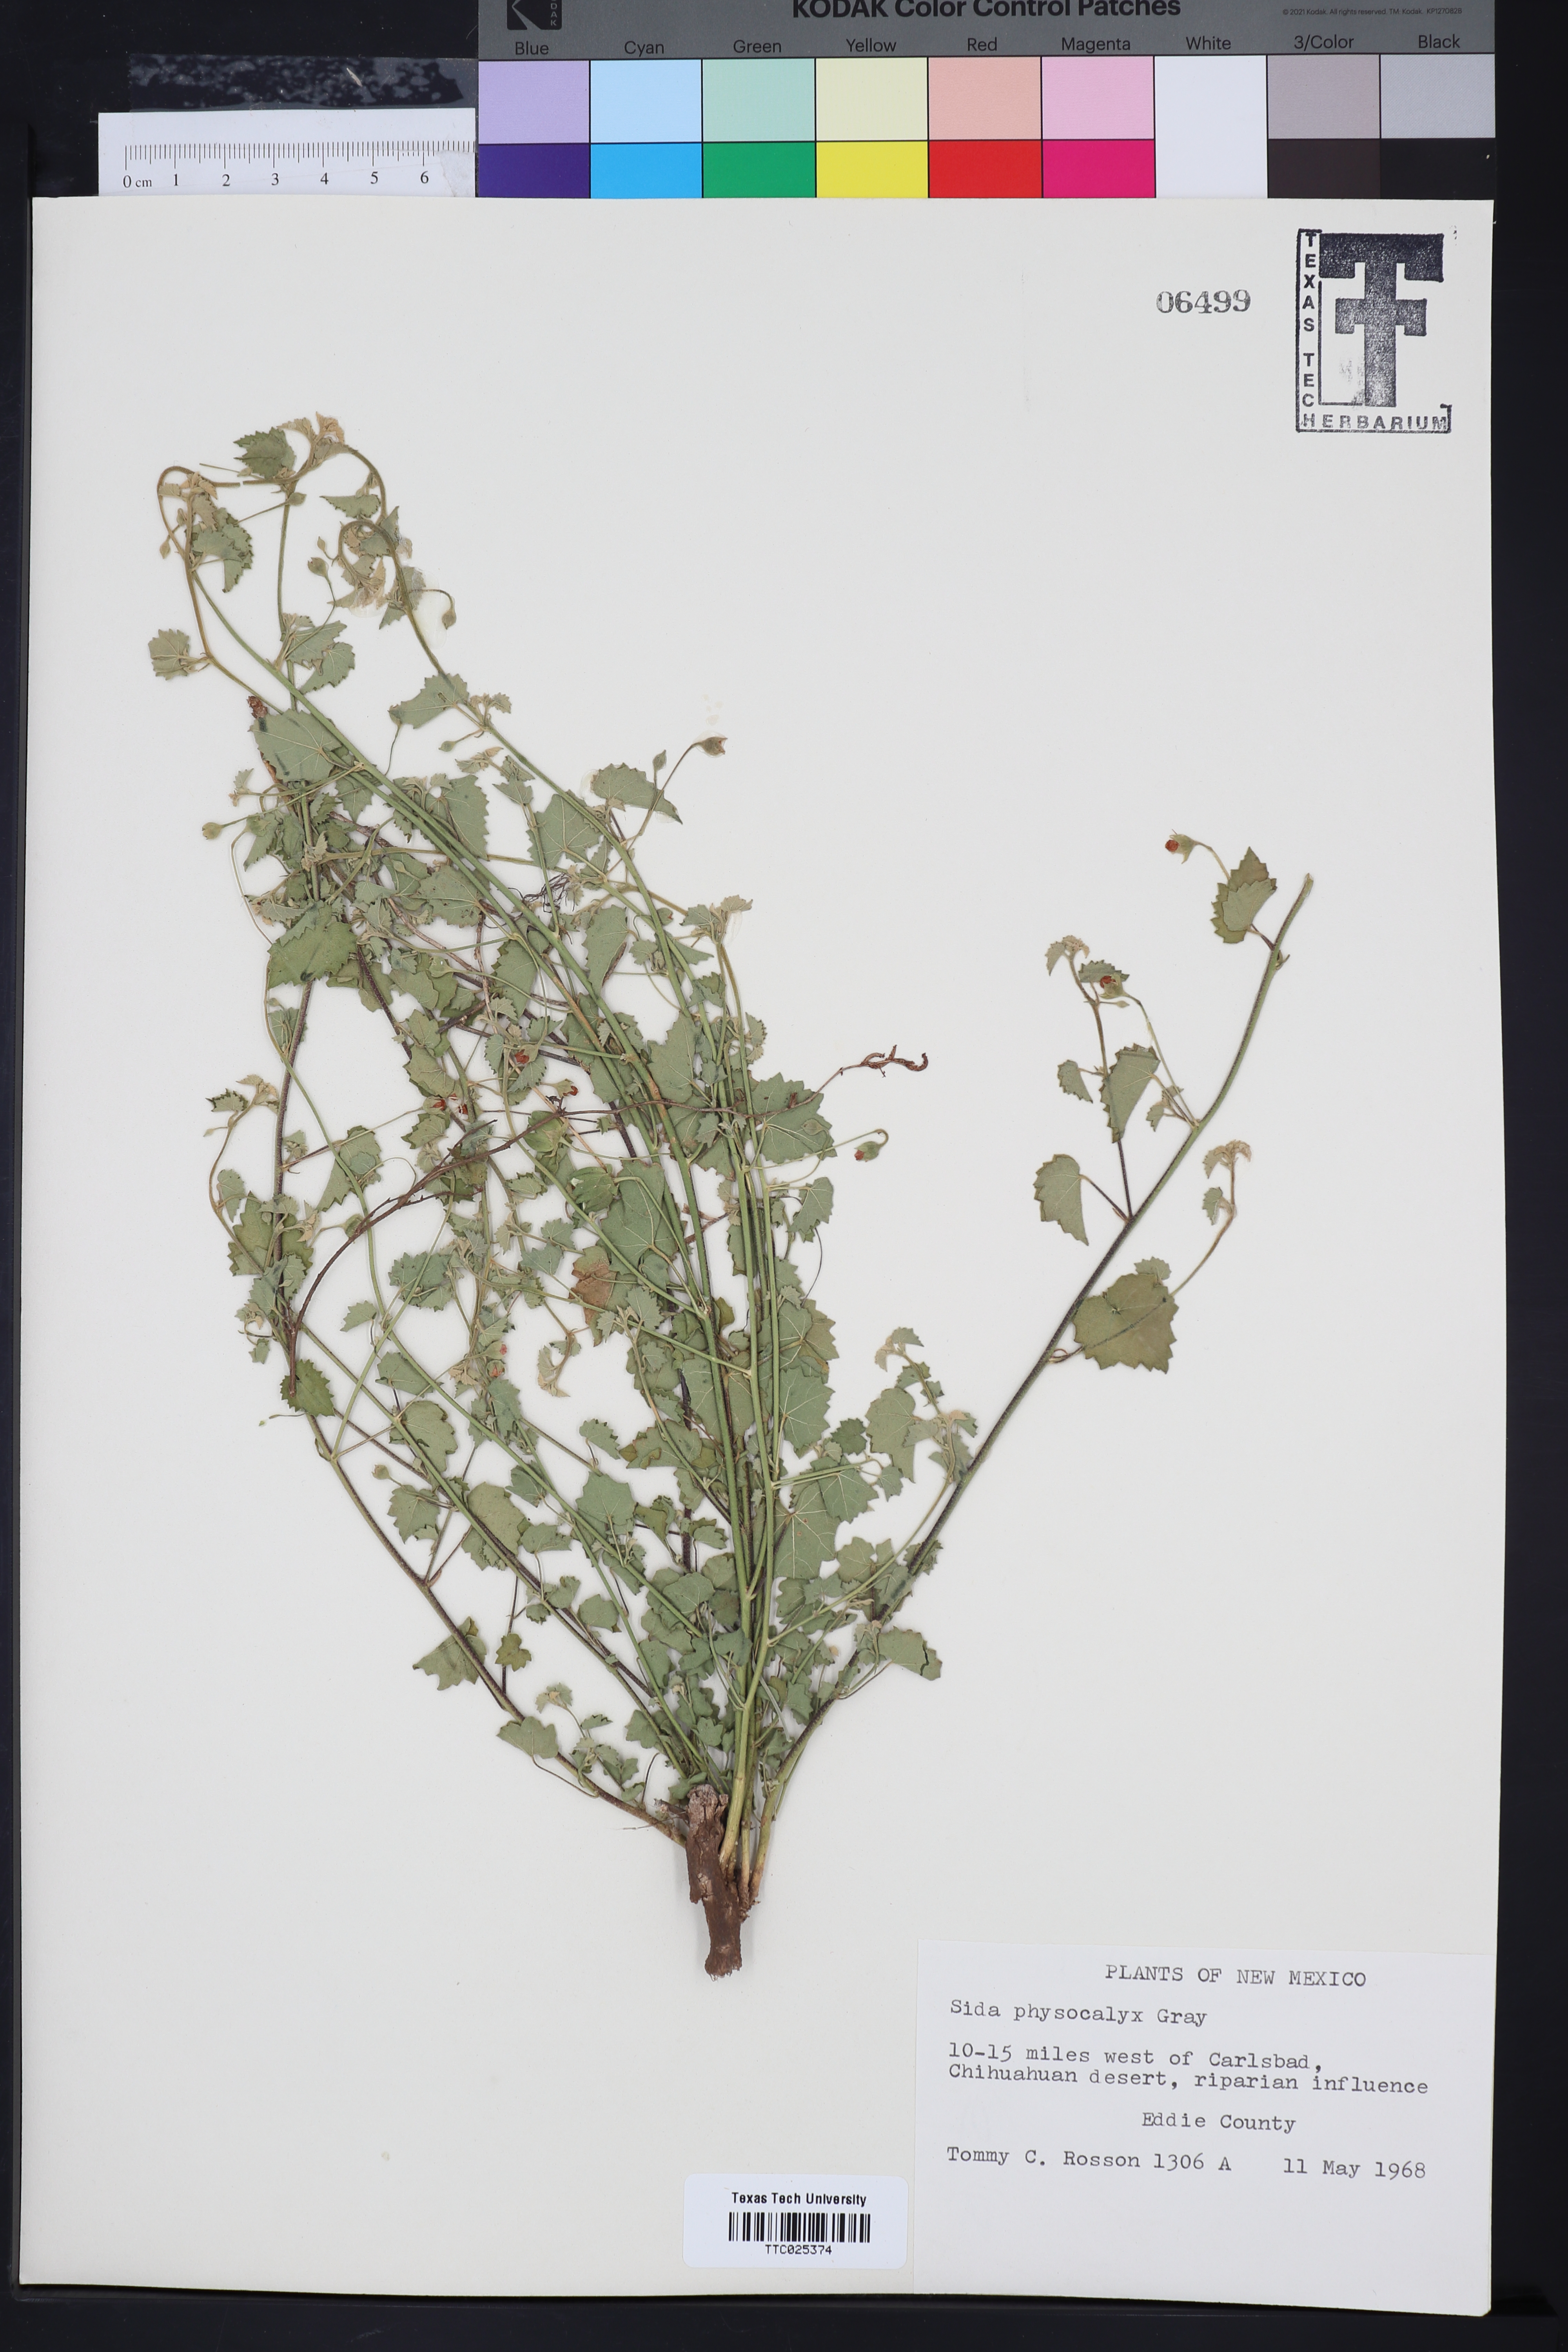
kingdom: Plantae
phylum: Tracheophyta
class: Magnoliopsida
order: Malvales
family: Malvaceae
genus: Rhynchosida
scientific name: Rhynchosida physocalyx
